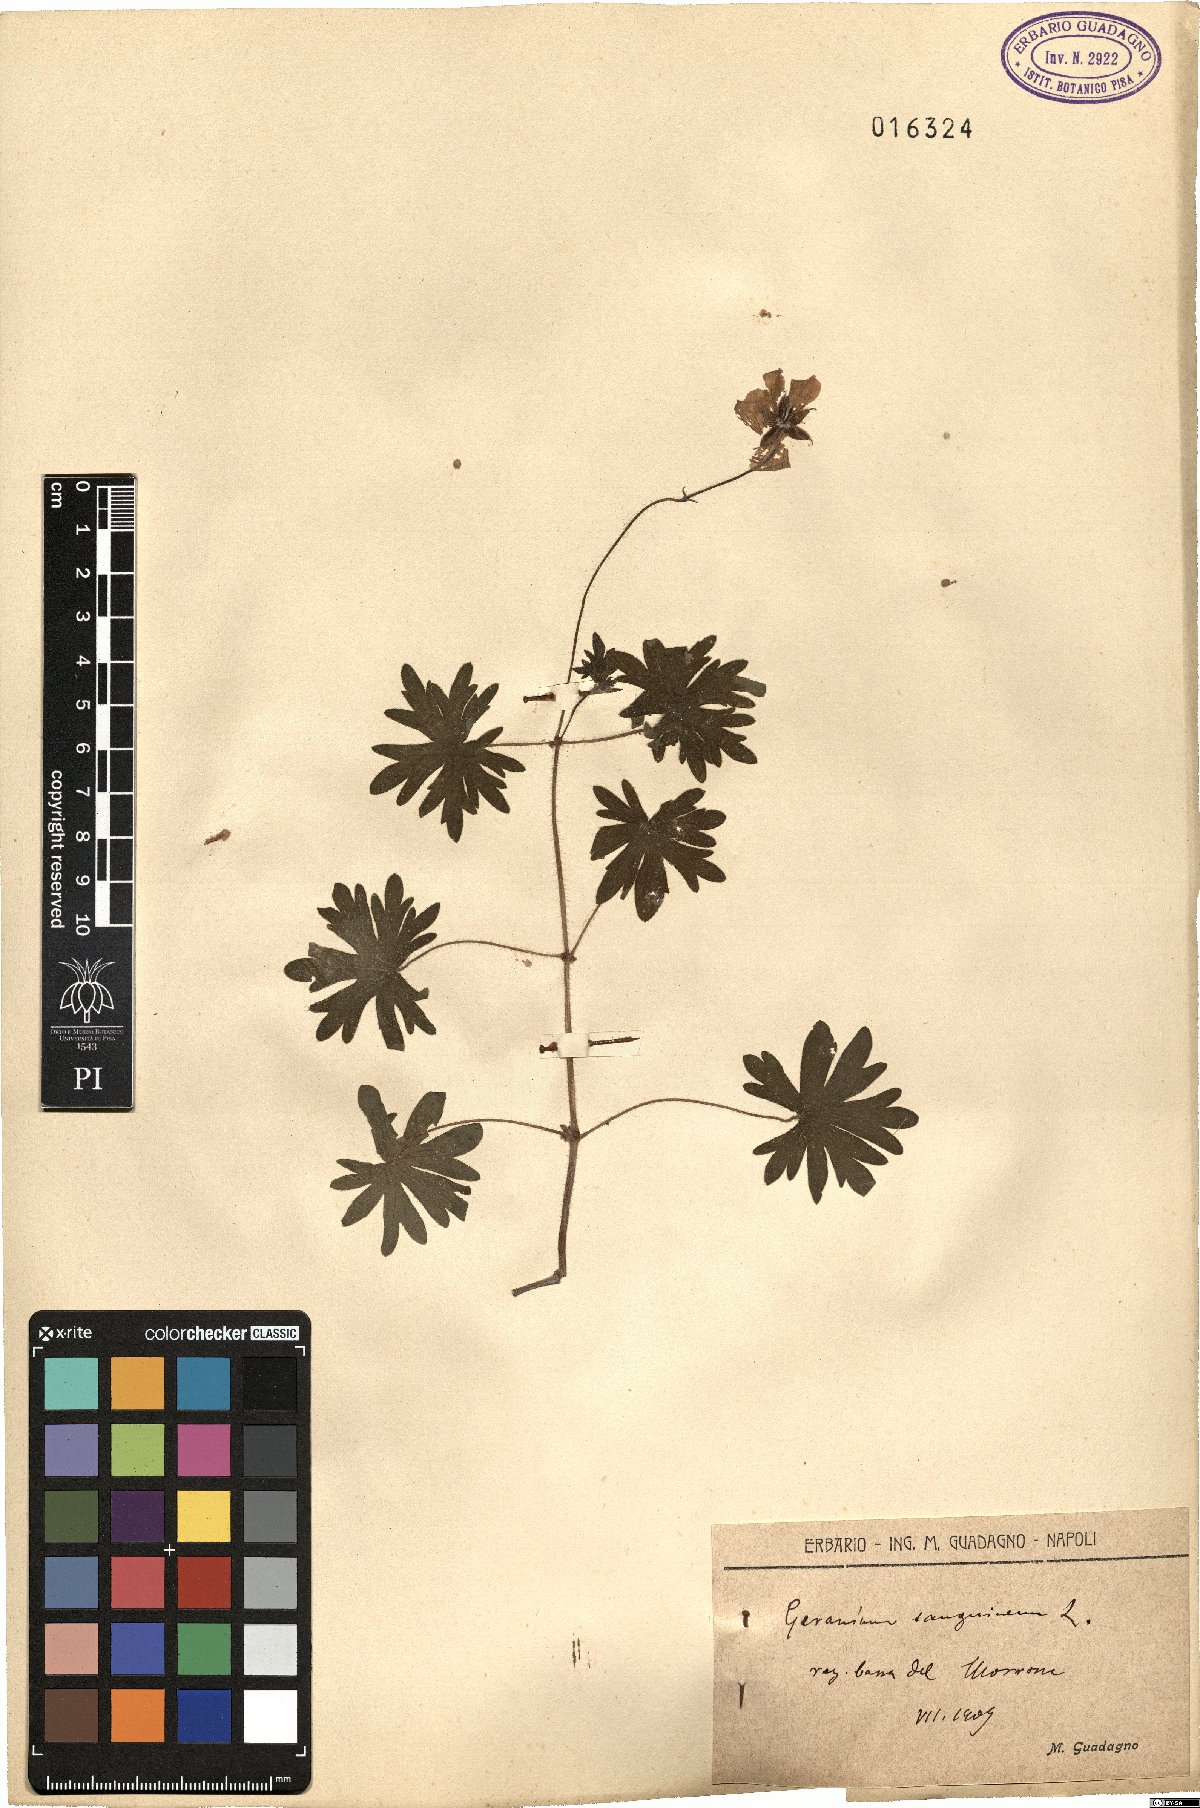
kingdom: Plantae
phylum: Tracheophyta
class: Magnoliopsida
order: Geraniales
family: Geraniaceae
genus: Geranium
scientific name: Geranium sanguineum
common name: Bloody crane's-bill
